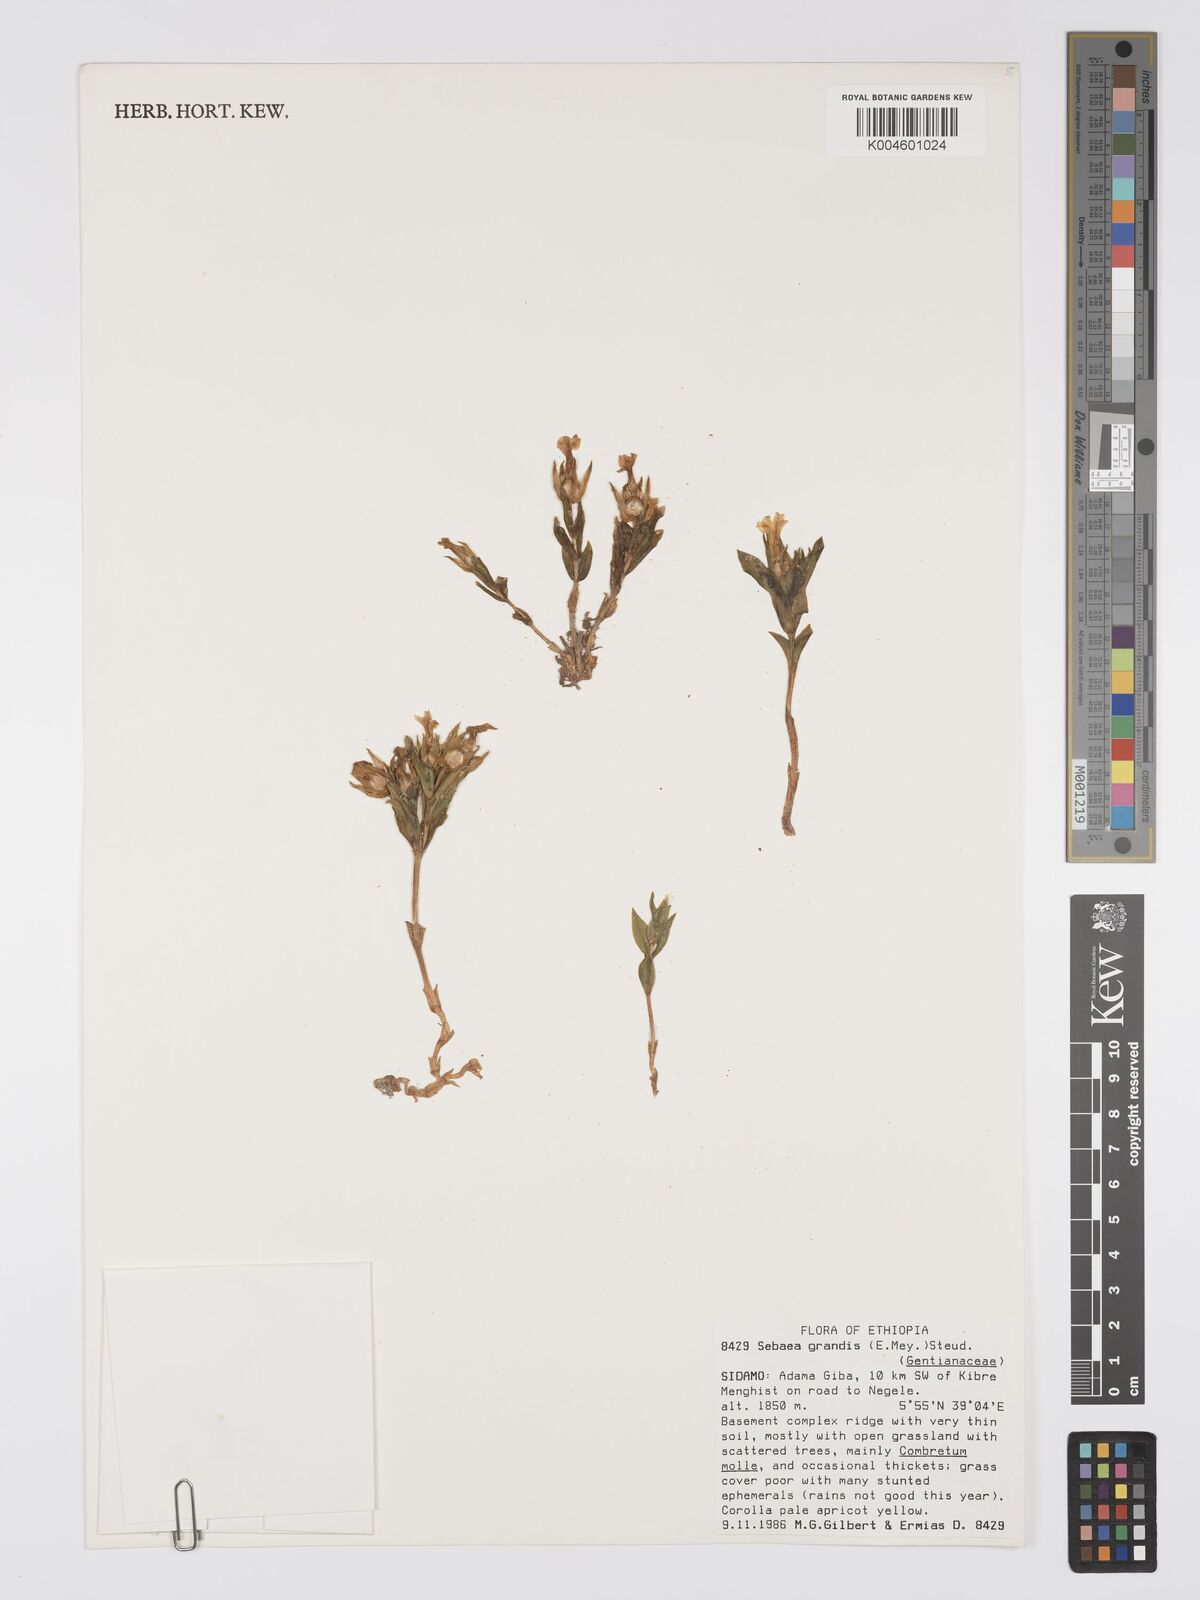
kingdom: Plantae
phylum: Tracheophyta
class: Magnoliopsida
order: Gentianales
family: Gentianaceae
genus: Exochaenium
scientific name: Exochaenium grande
